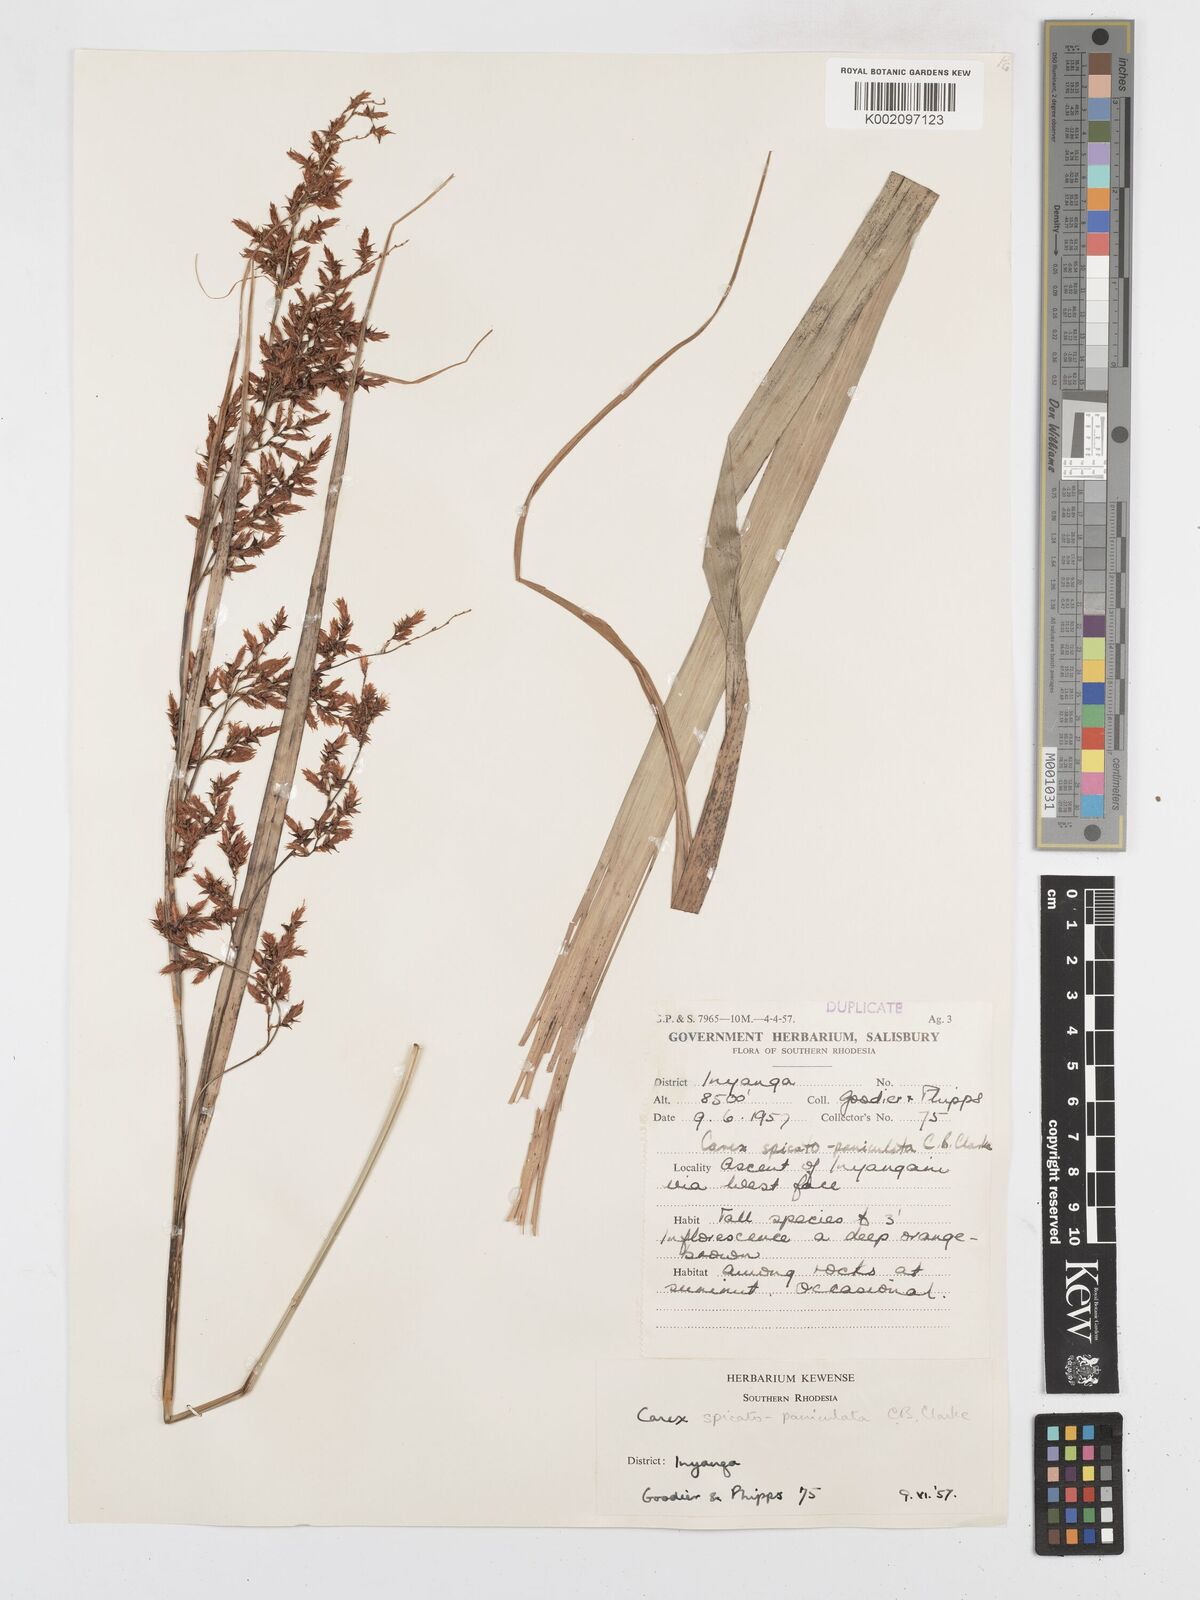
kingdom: Plantae
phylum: Tracheophyta
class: Liliopsida
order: Poales
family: Cyperaceae
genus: Carex
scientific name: Carex steudneri
